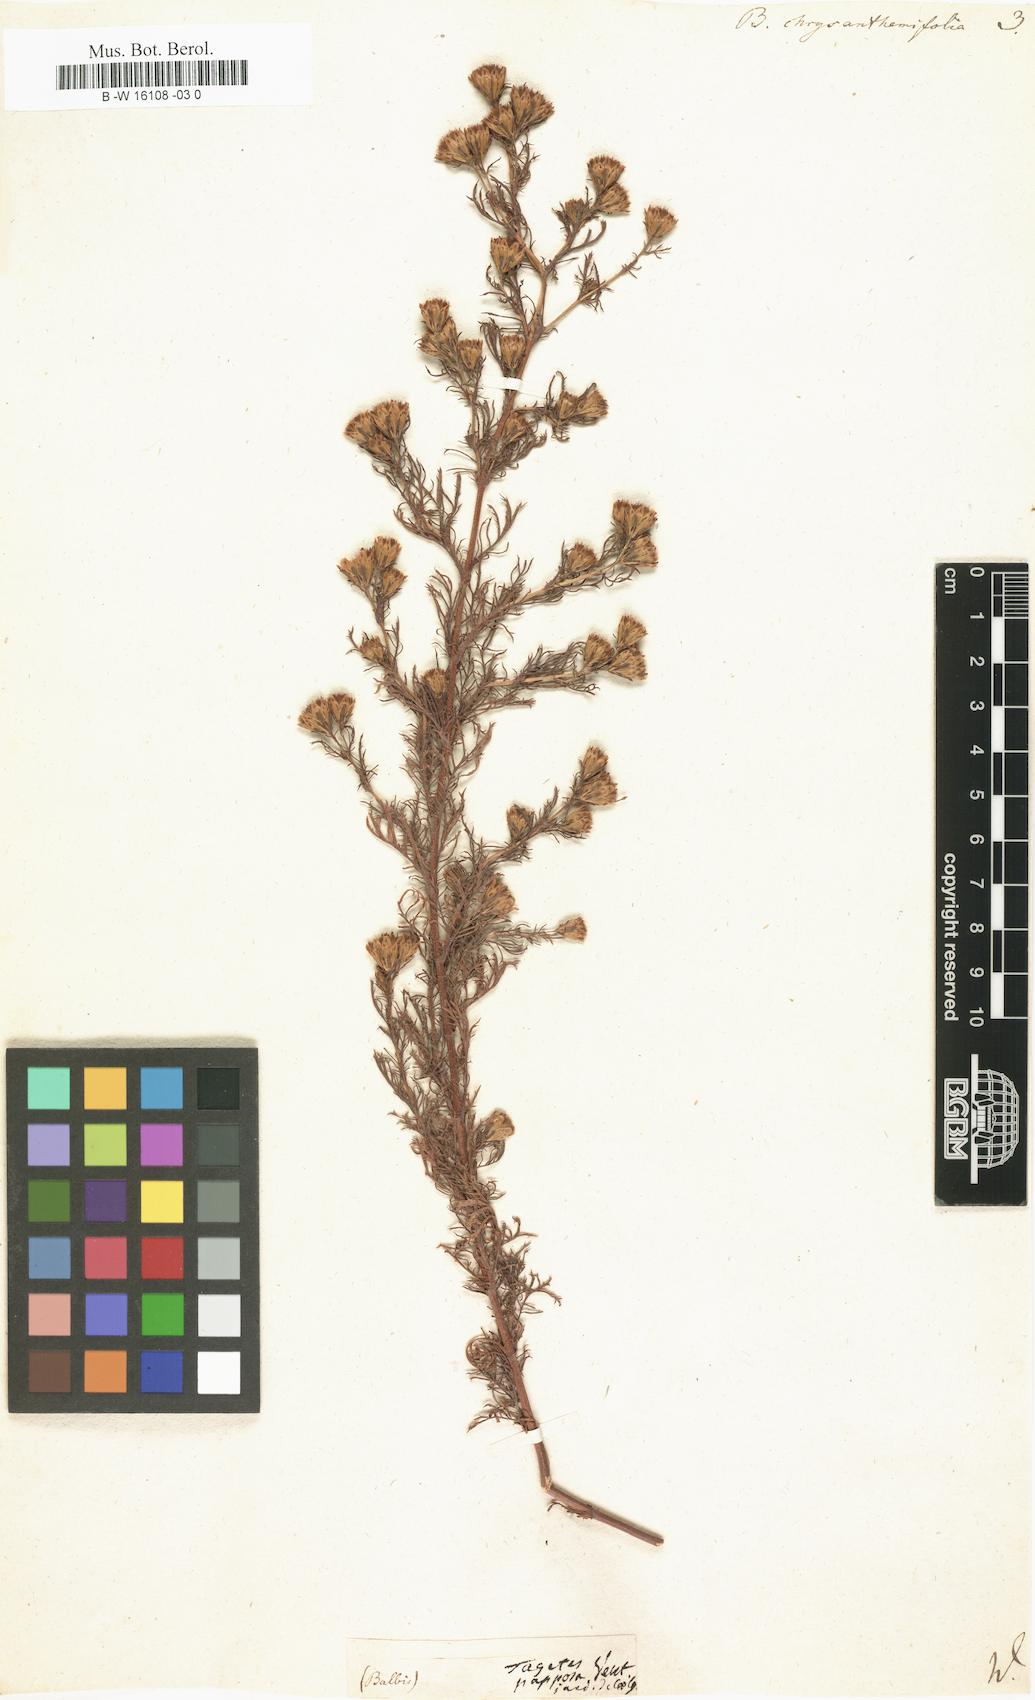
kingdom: Plantae
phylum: Tracheophyta
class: Magnoliopsida
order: Asterales
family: Asteraceae
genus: Dyssodia
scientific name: Dyssodia papposa
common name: Dogweed
